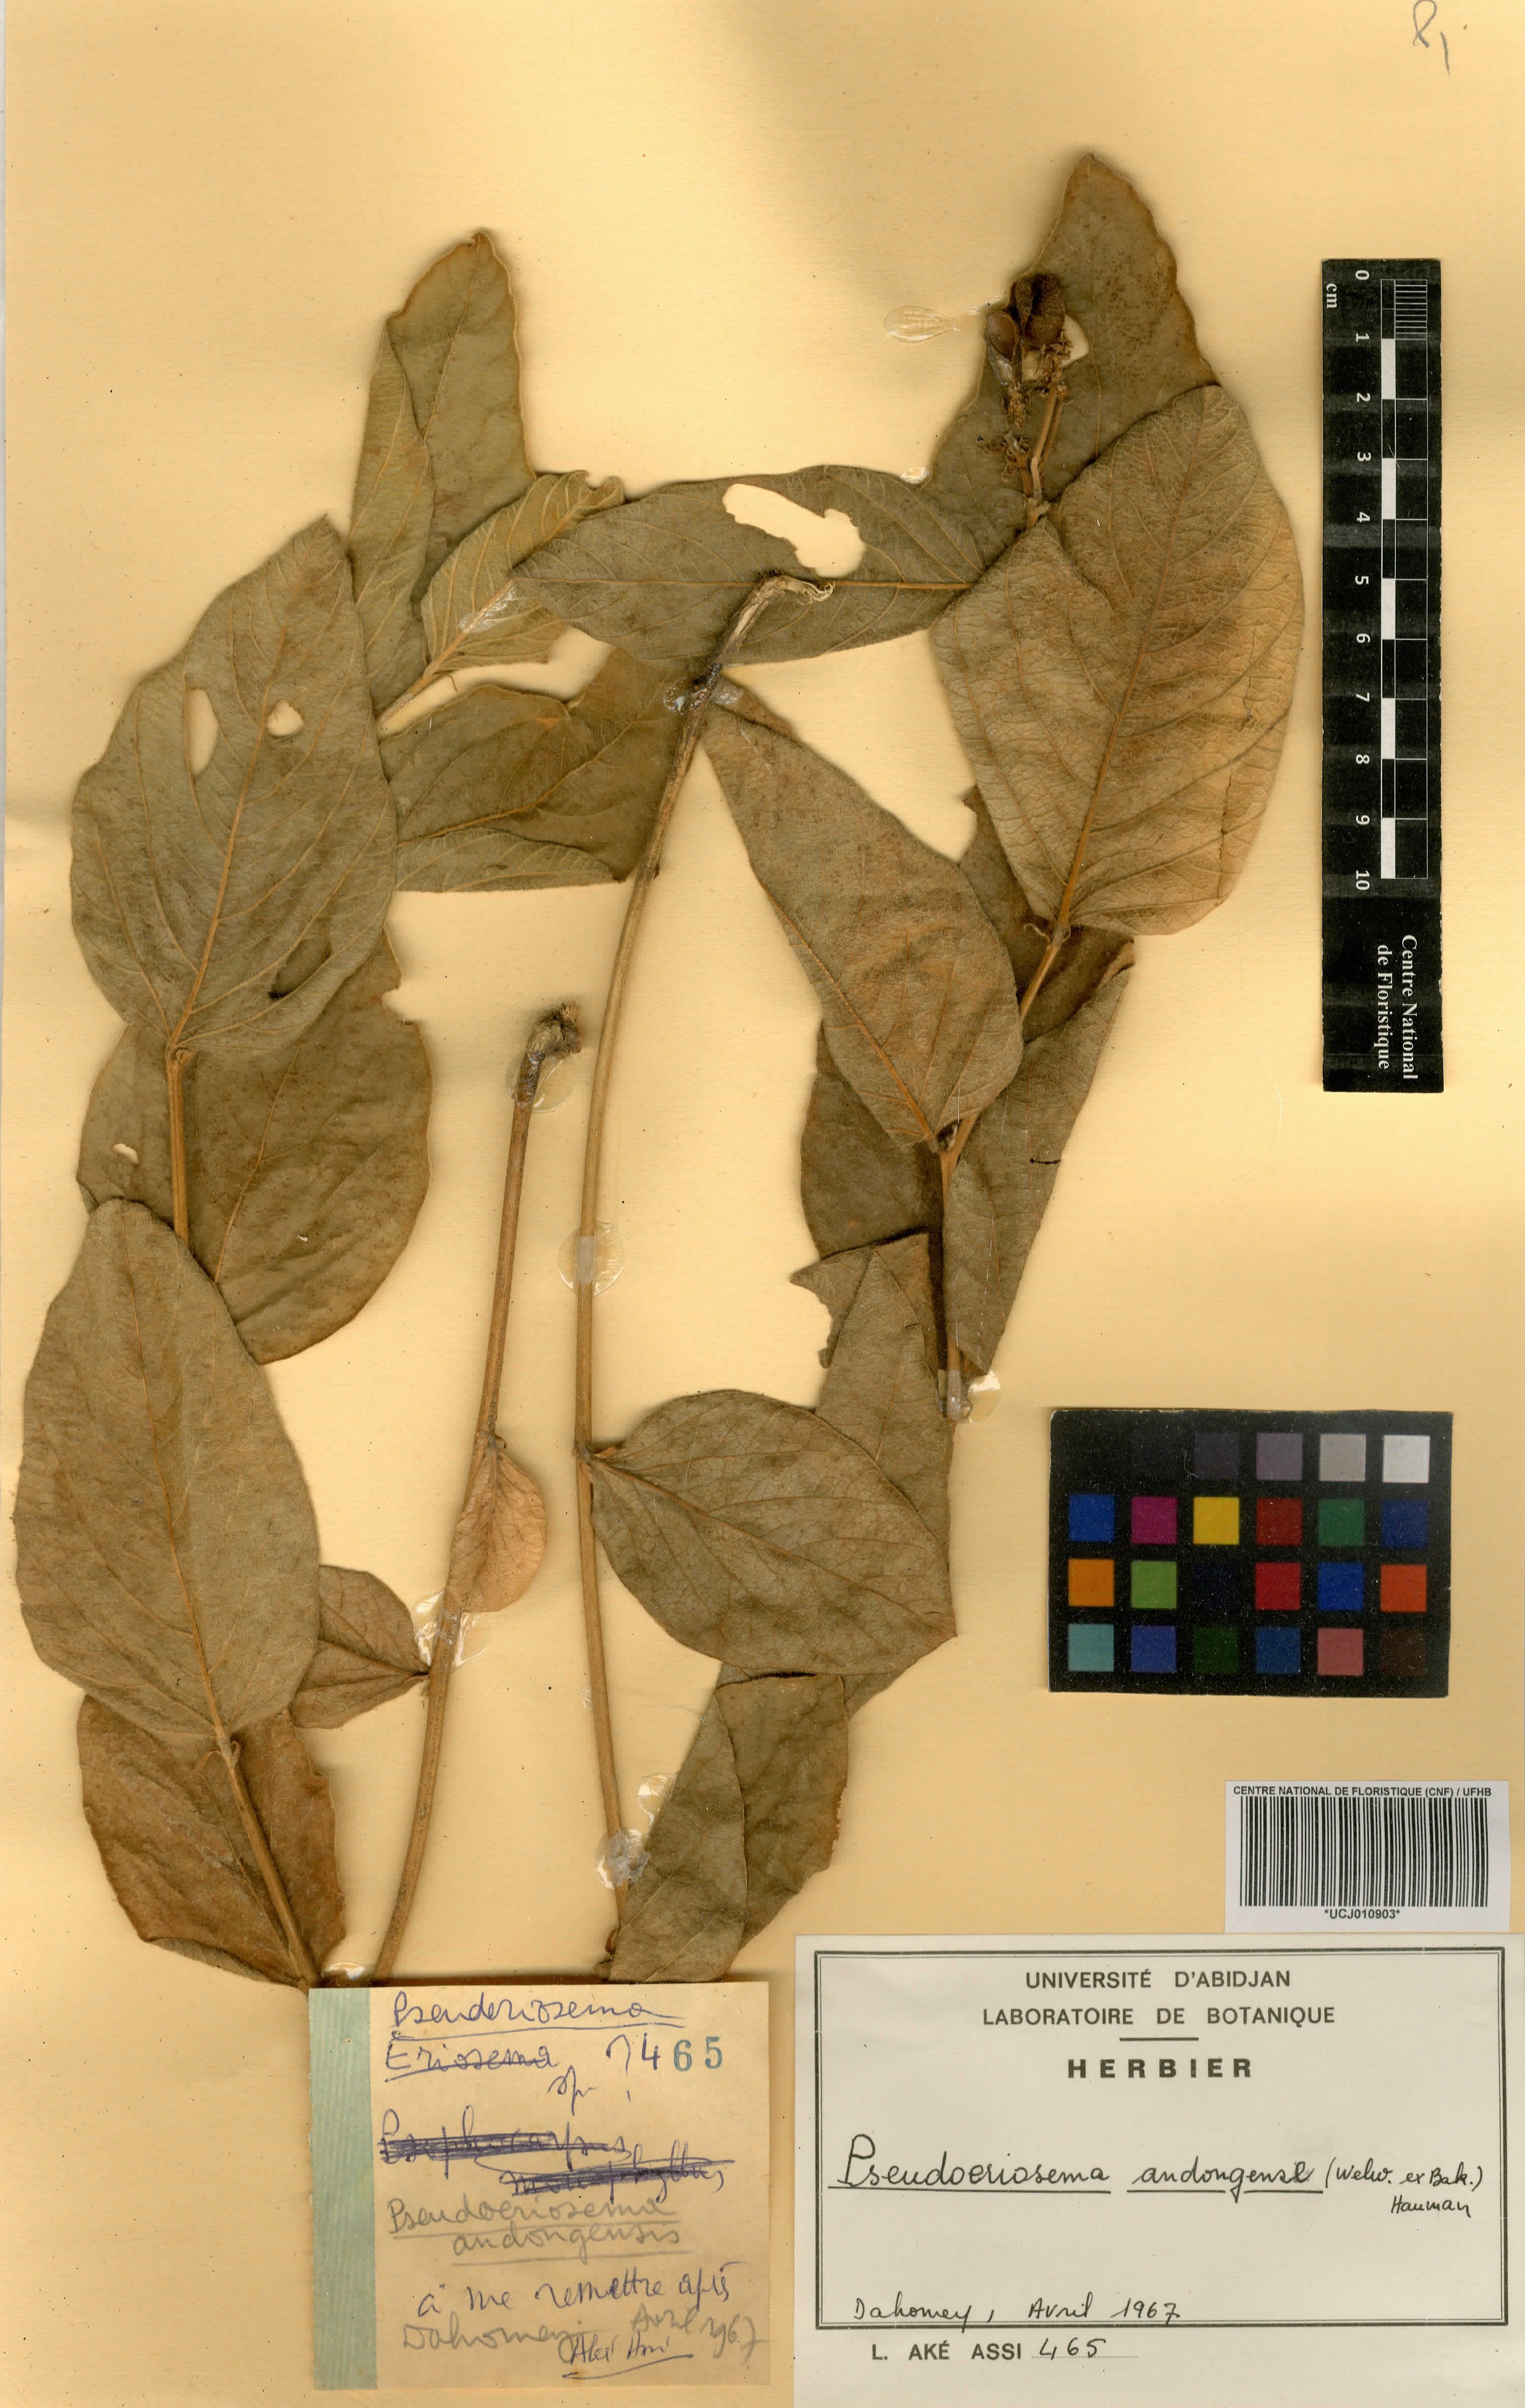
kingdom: Plantae
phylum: Tracheophyta
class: Magnoliopsida
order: Fabales
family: Fabaceae
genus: Pseudoeriosema
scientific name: Pseudoeriosema andongense
